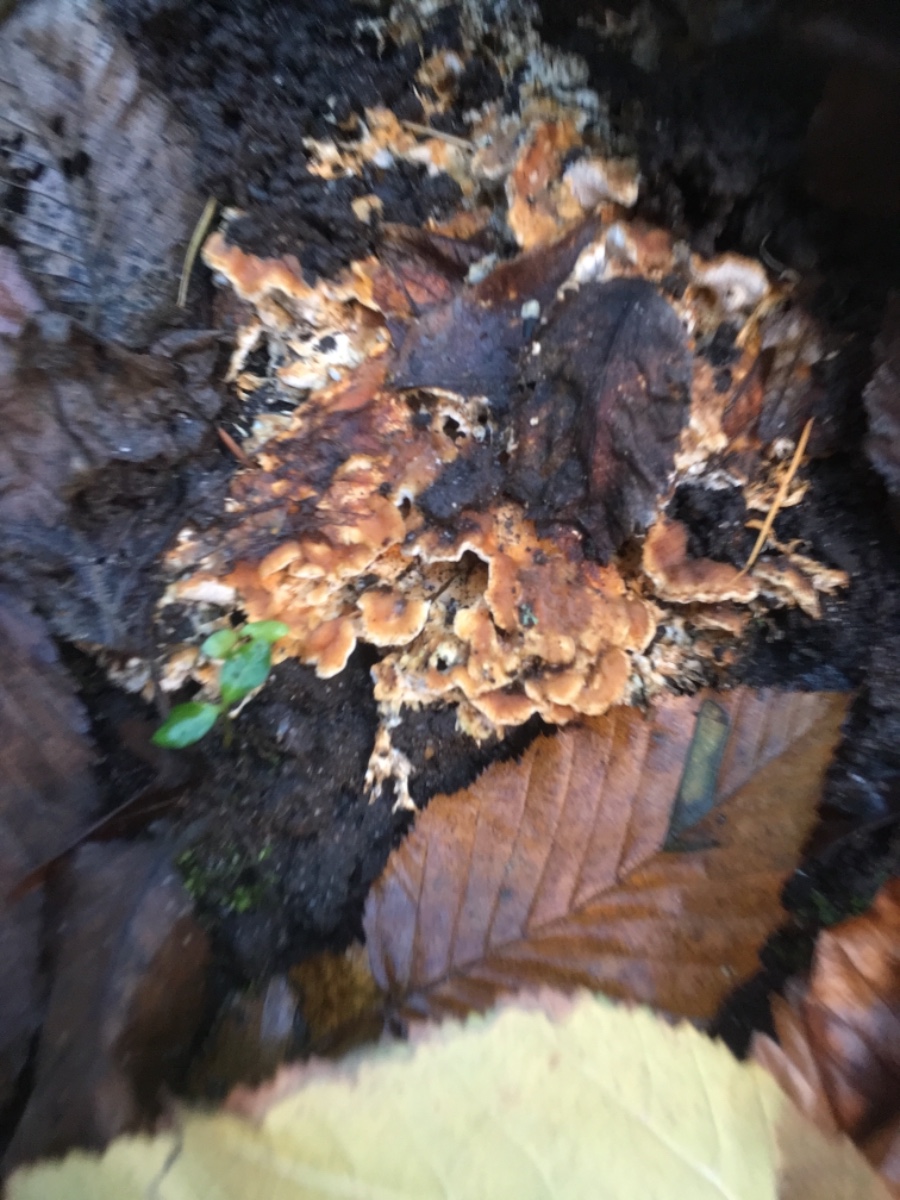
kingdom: Fungi
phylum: Basidiomycota
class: Agaricomycetes
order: Polyporales
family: Steccherinaceae
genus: Loweomyces
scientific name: Loweomyces wynneae
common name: krybende blødporesvamp
